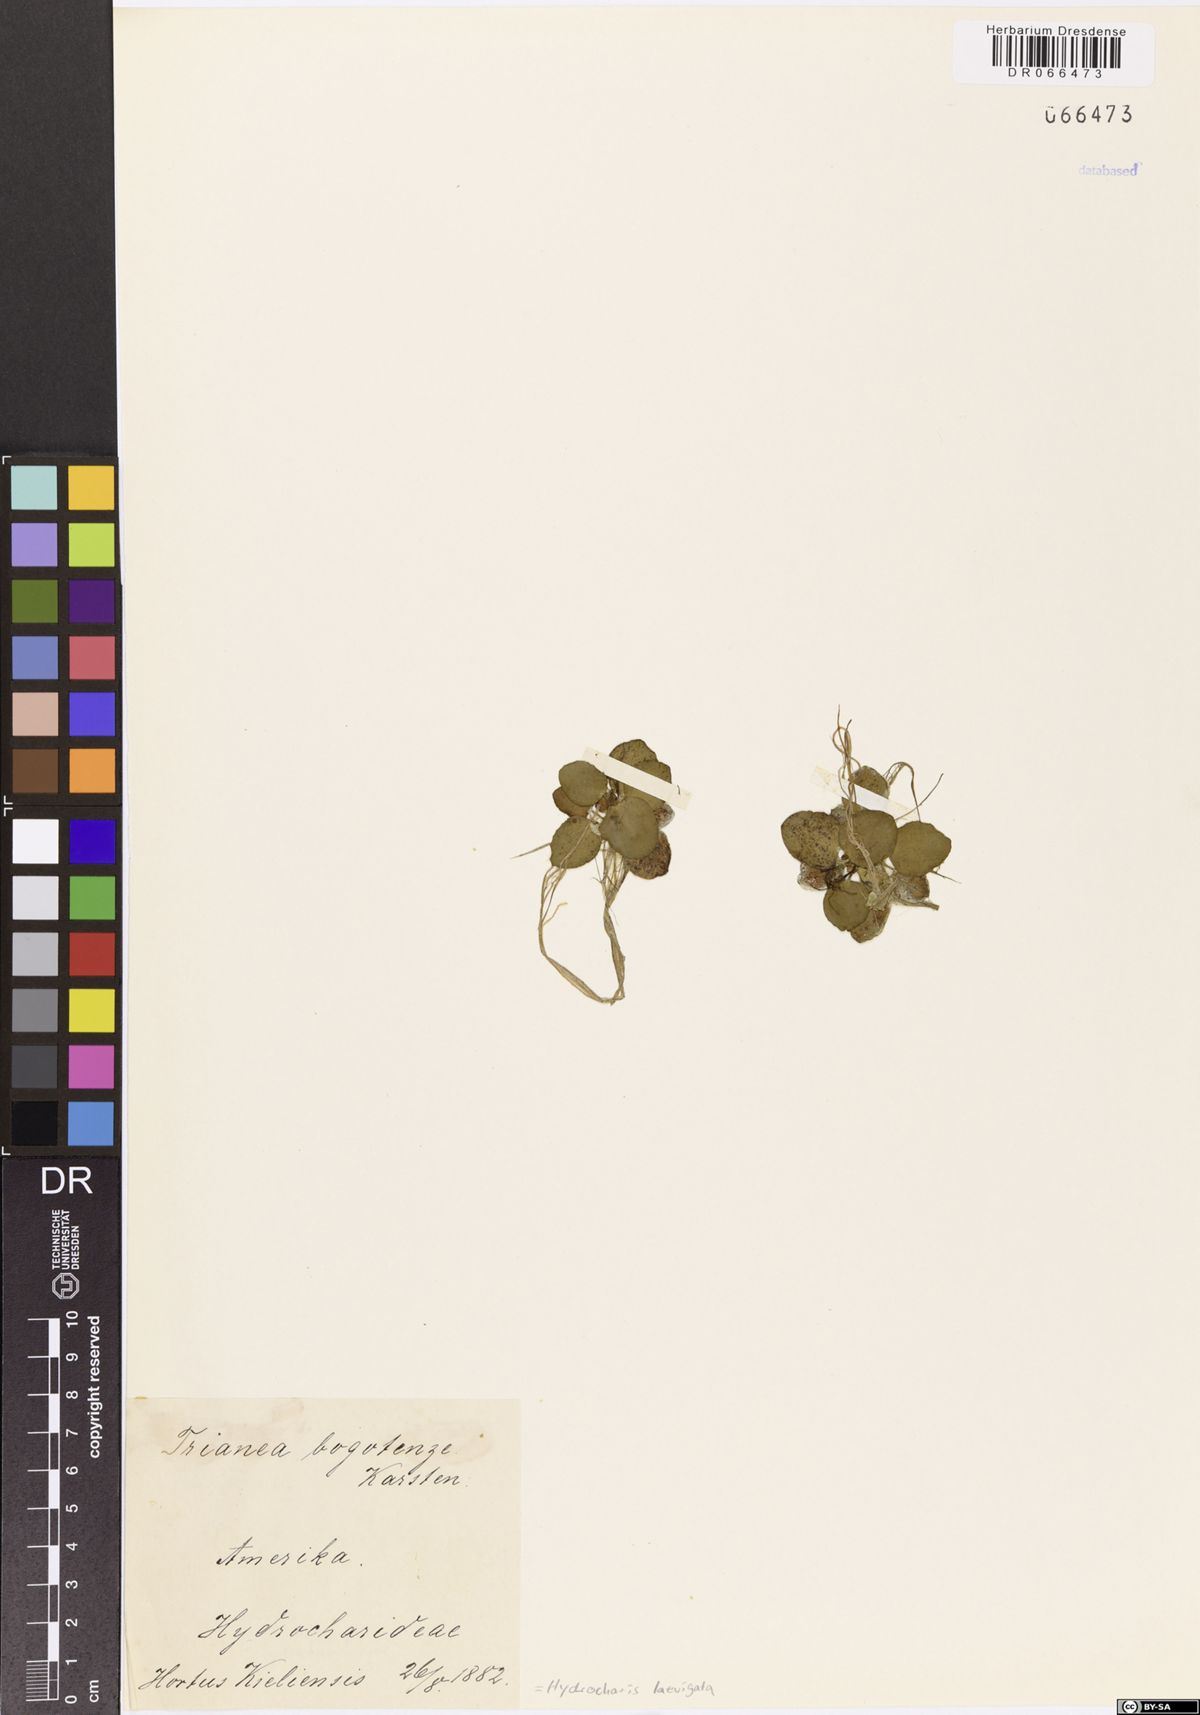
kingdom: Plantae
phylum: Tracheophyta
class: Liliopsida
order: Alismatales
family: Hydrocharitaceae
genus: Hydrocharis
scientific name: Hydrocharis laevigata
